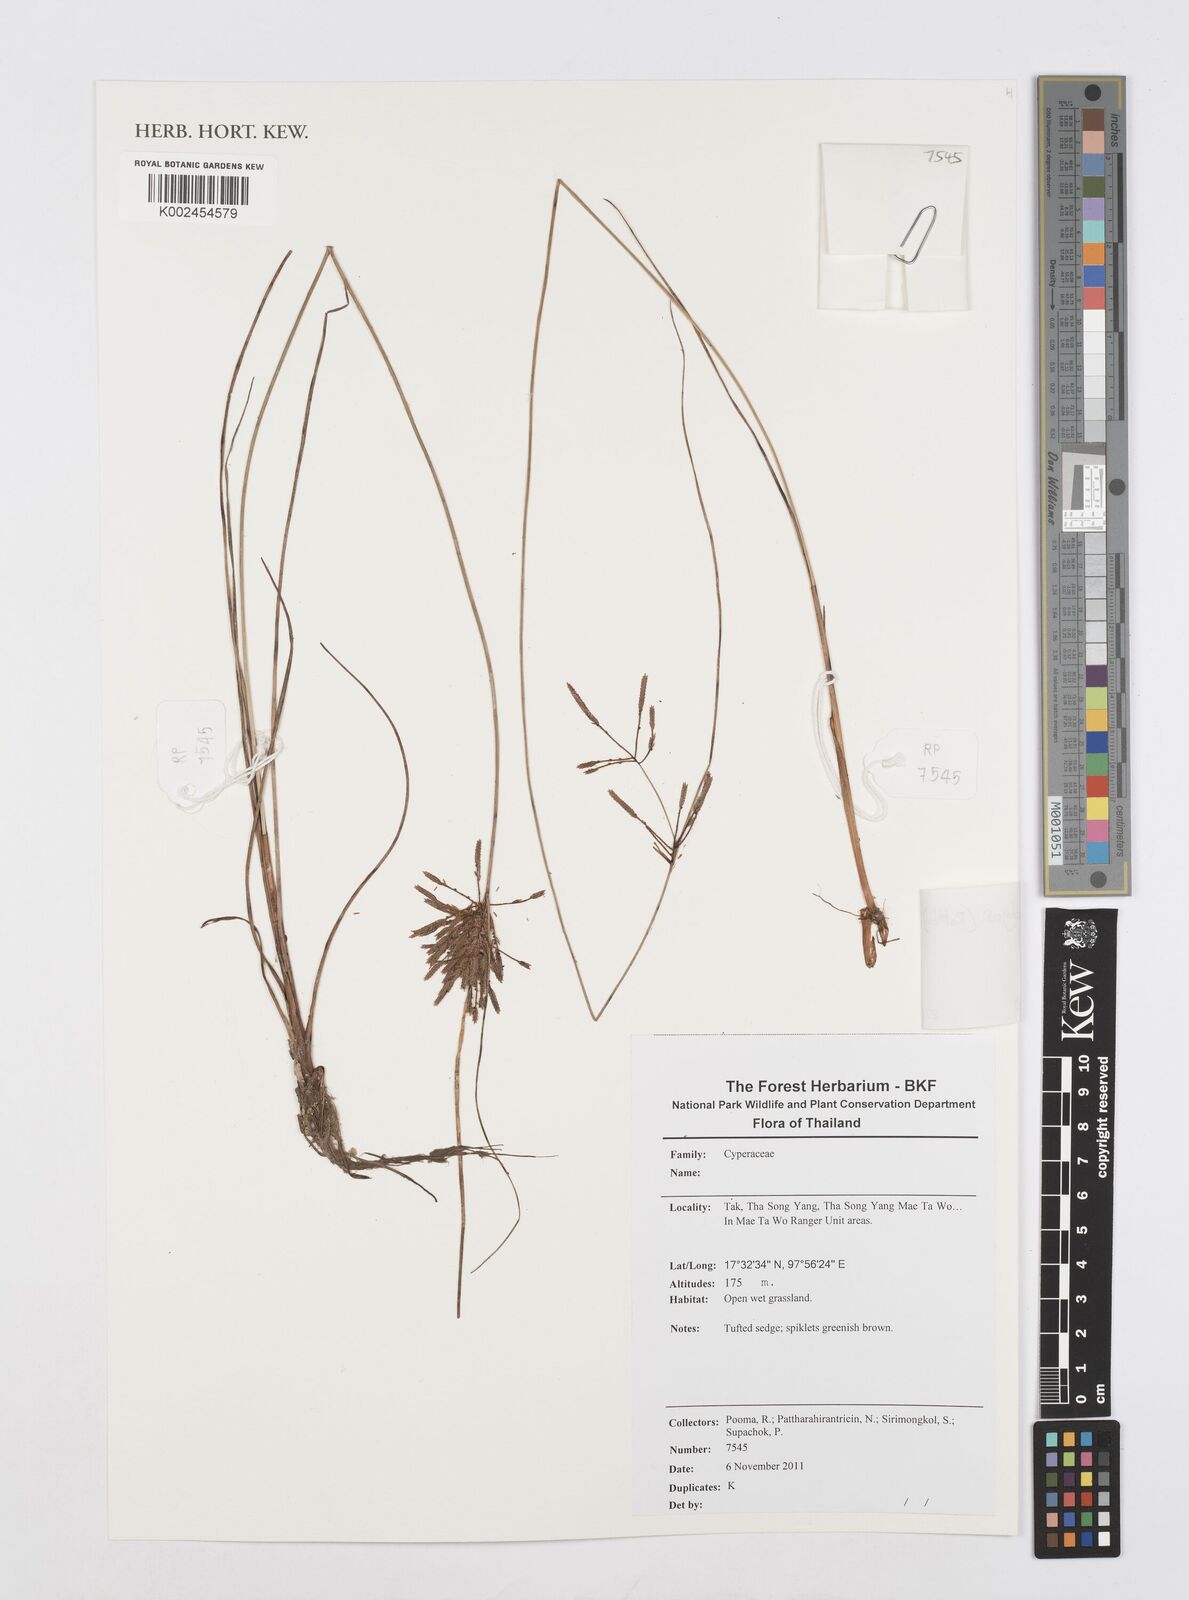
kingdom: Plantae
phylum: Tracheophyta
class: Liliopsida
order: Poales
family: Cyperaceae
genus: Cyperus
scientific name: Cyperus polystachyos
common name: Bunchy flat sedge
